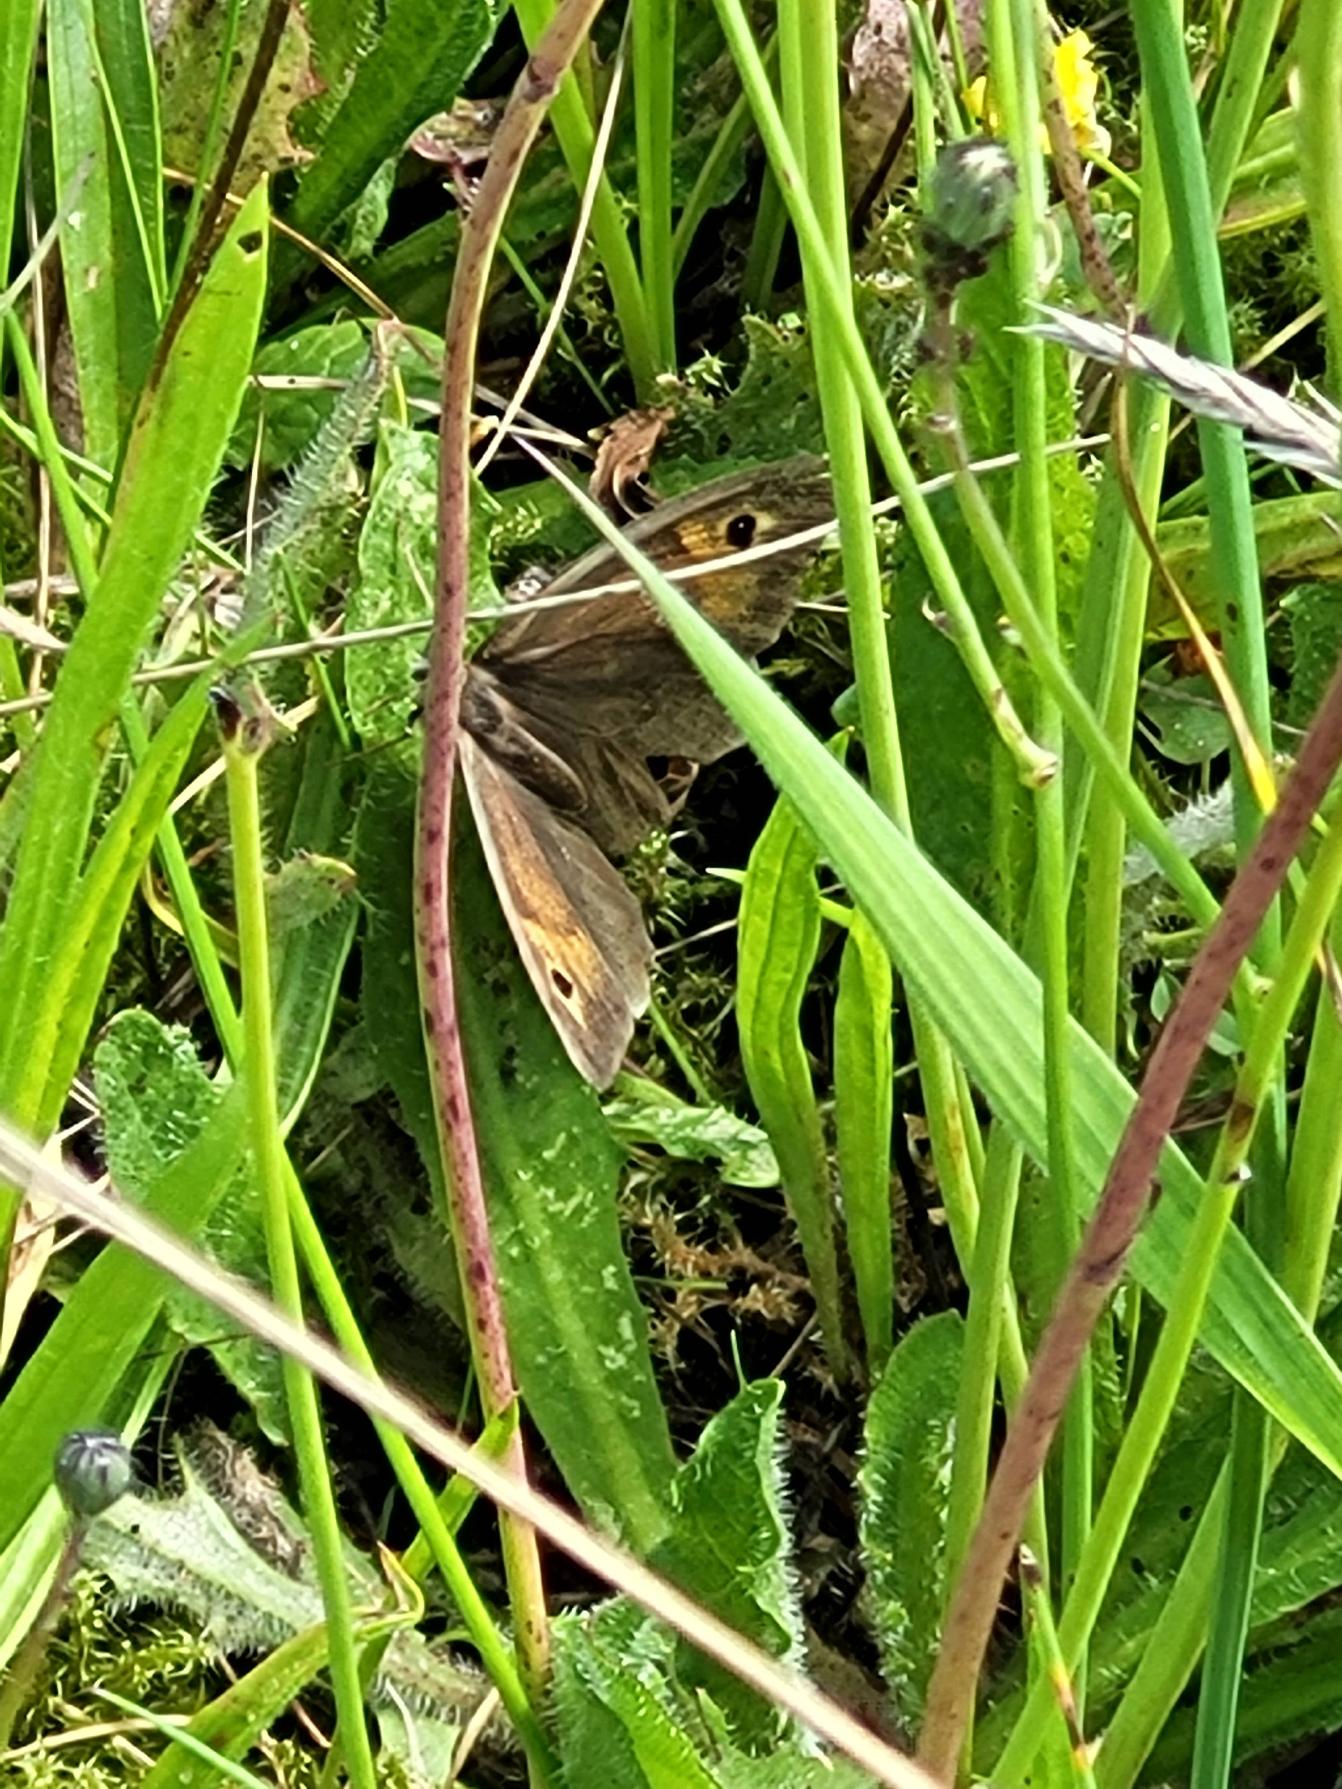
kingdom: Animalia
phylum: Arthropoda
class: Insecta
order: Lepidoptera
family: Nymphalidae
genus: Maniola
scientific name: Maniola jurtina
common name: Græsrandøje
